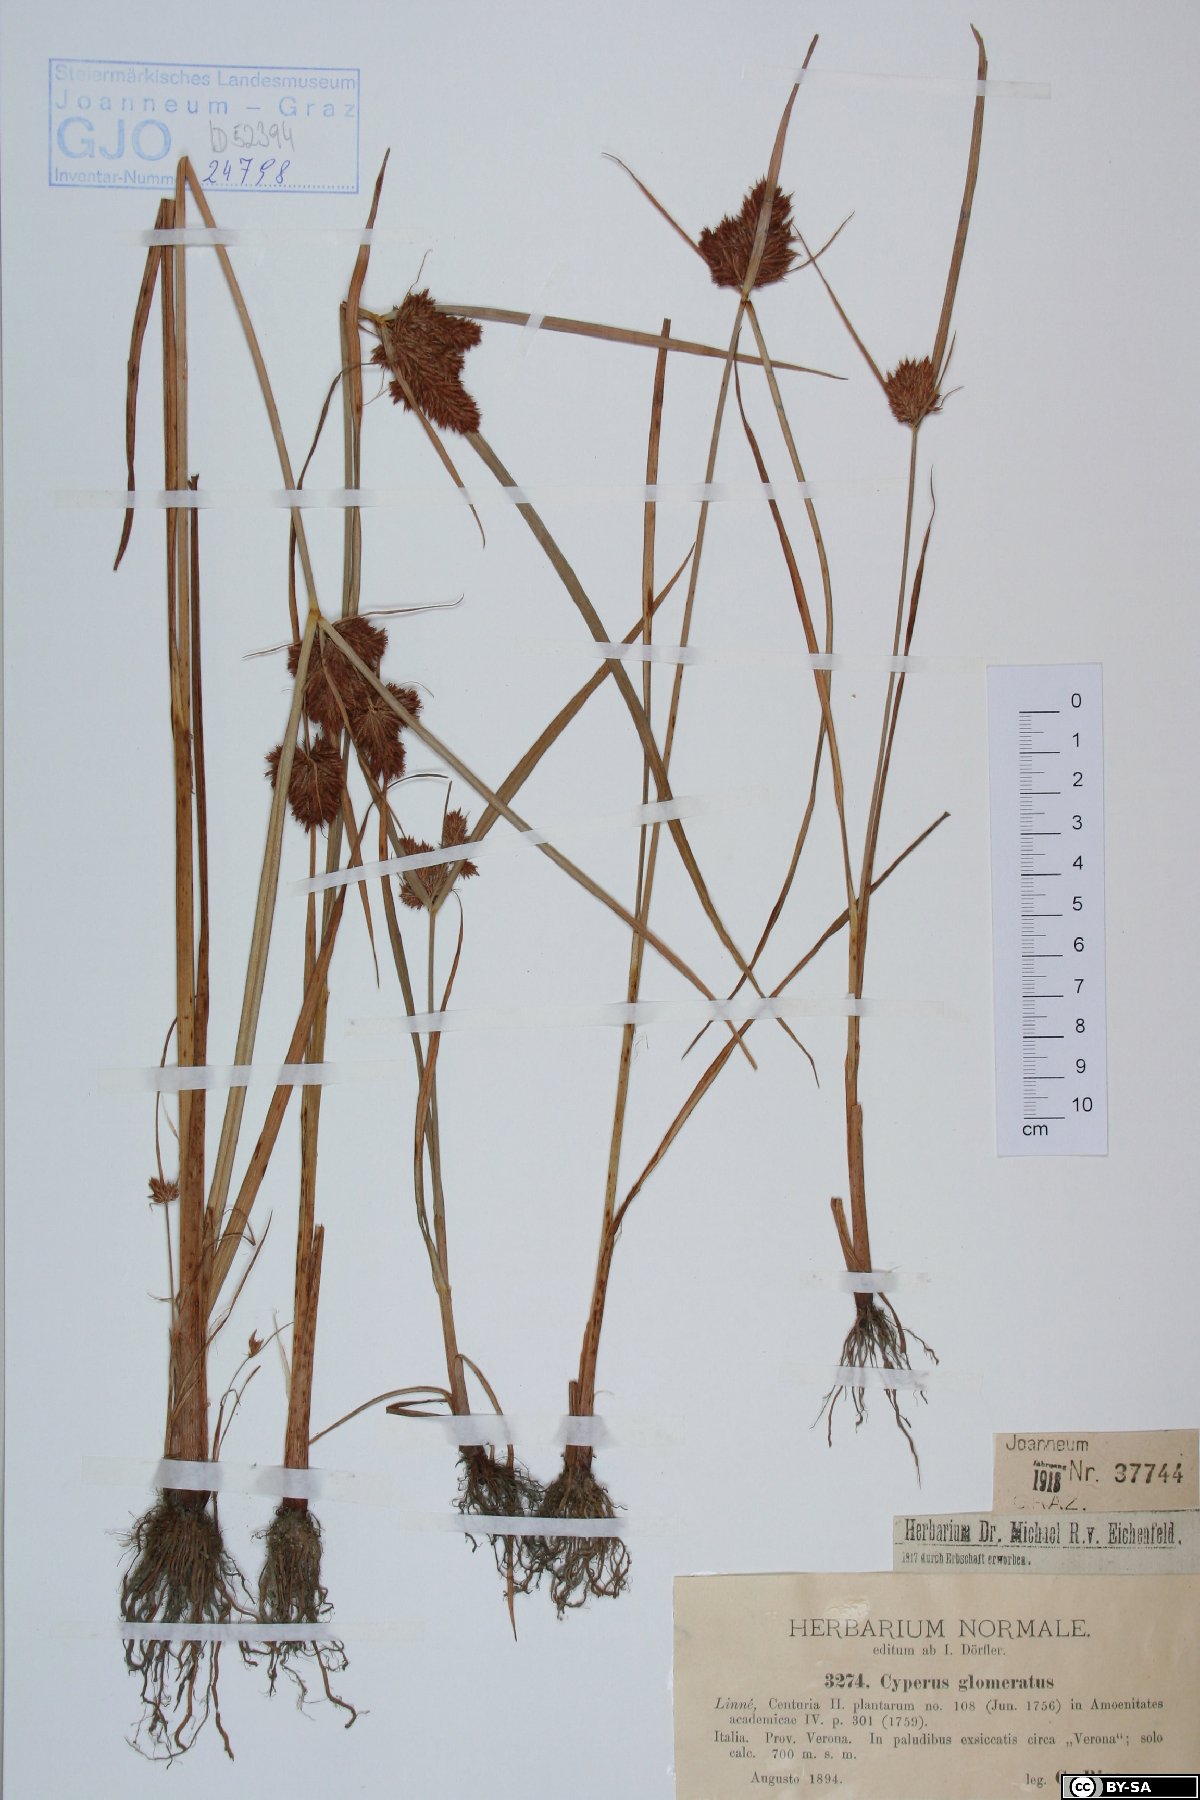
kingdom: Plantae
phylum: Tracheophyta
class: Liliopsida
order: Poales
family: Cyperaceae
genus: Cyperus
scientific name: Cyperus glomeratus
